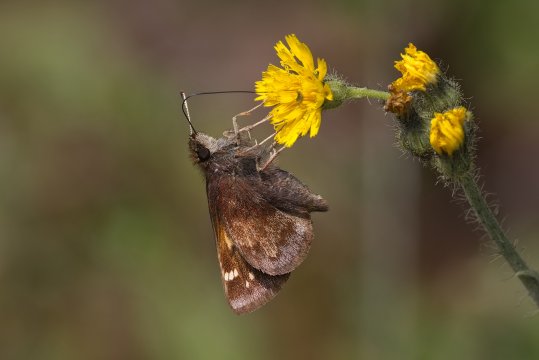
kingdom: Animalia
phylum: Arthropoda
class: Insecta
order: Lepidoptera
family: Hesperiidae
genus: Lon
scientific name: Lon hobomok
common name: Hobomok Skipper
